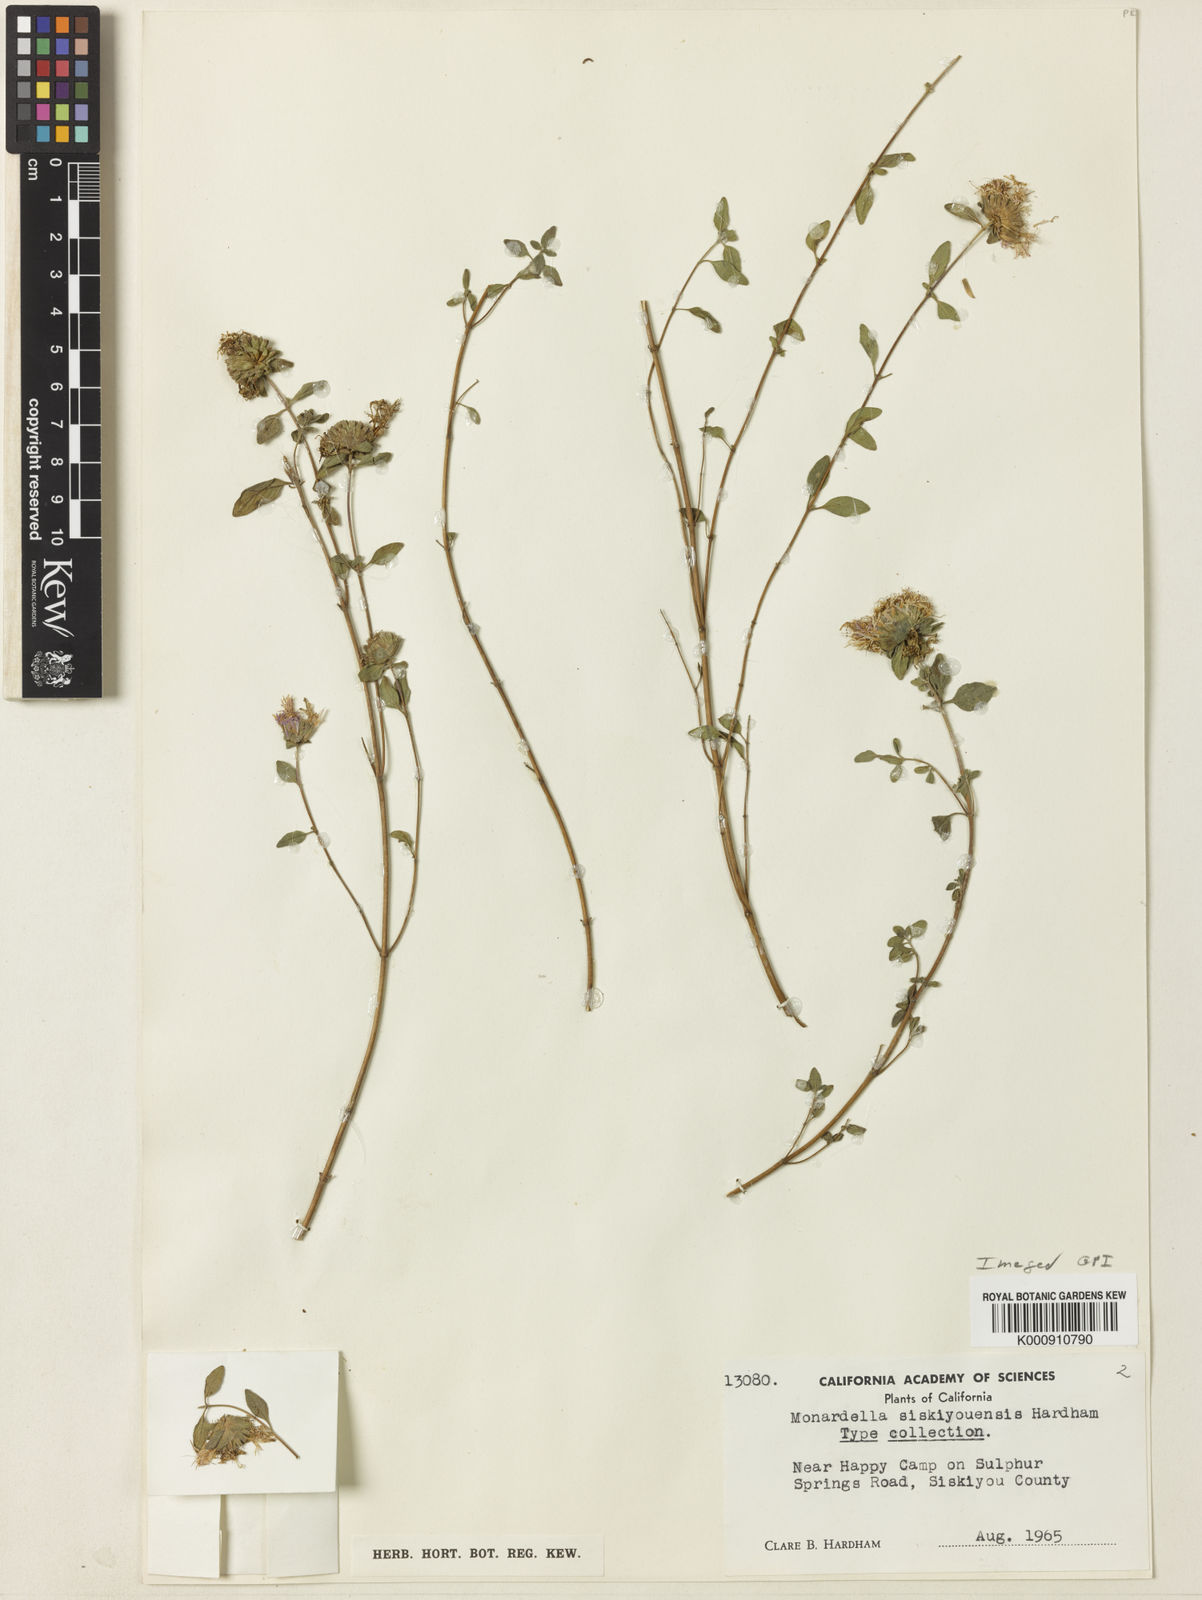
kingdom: Plantae
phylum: Tracheophyta
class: Magnoliopsida
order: Lamiales
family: Lamiaceae
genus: Monardella
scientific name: Monardella siskiyouensis
